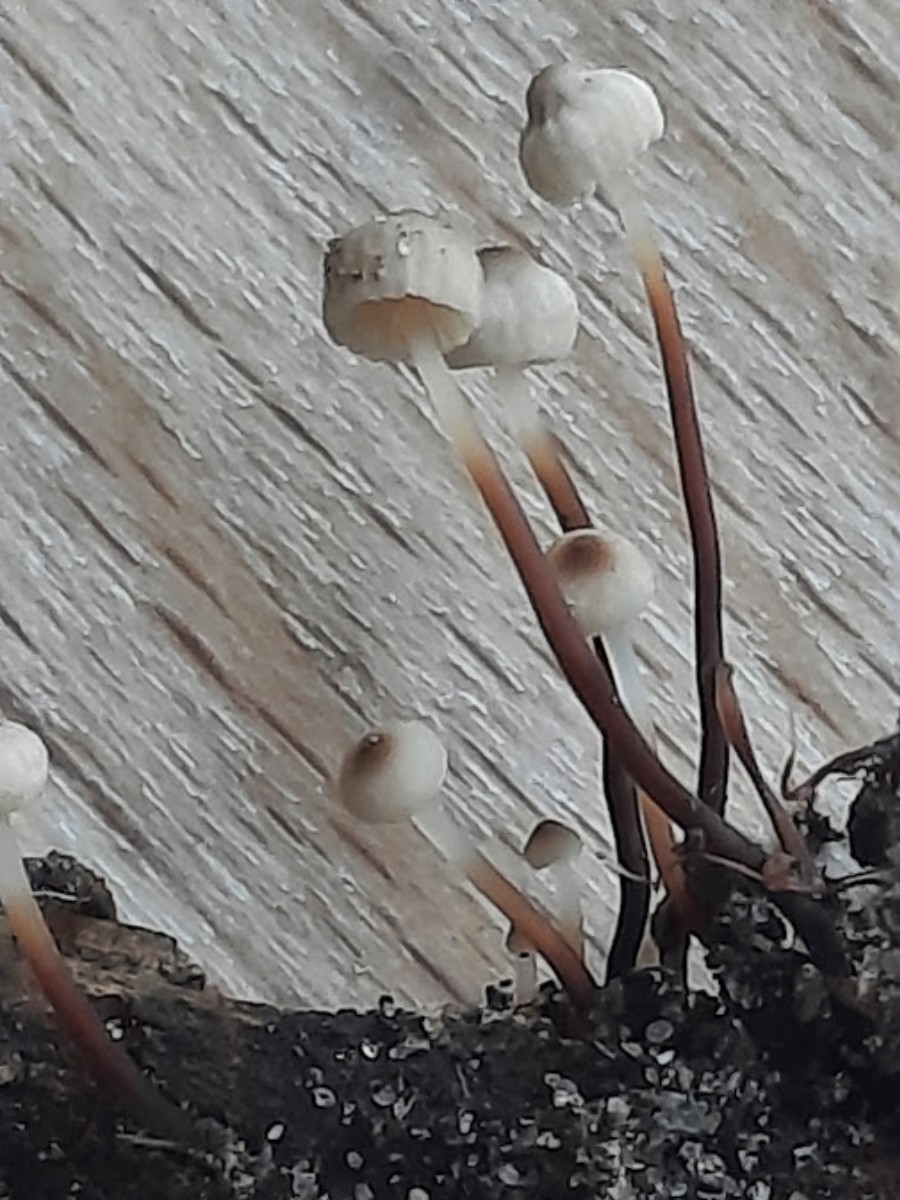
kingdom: Fungi
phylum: Basidiomycota
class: Agaricomycetes
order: Agaricales
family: Marasmiaceae
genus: Marasmius
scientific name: Marasmius rotula
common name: hjul-bruskhat
